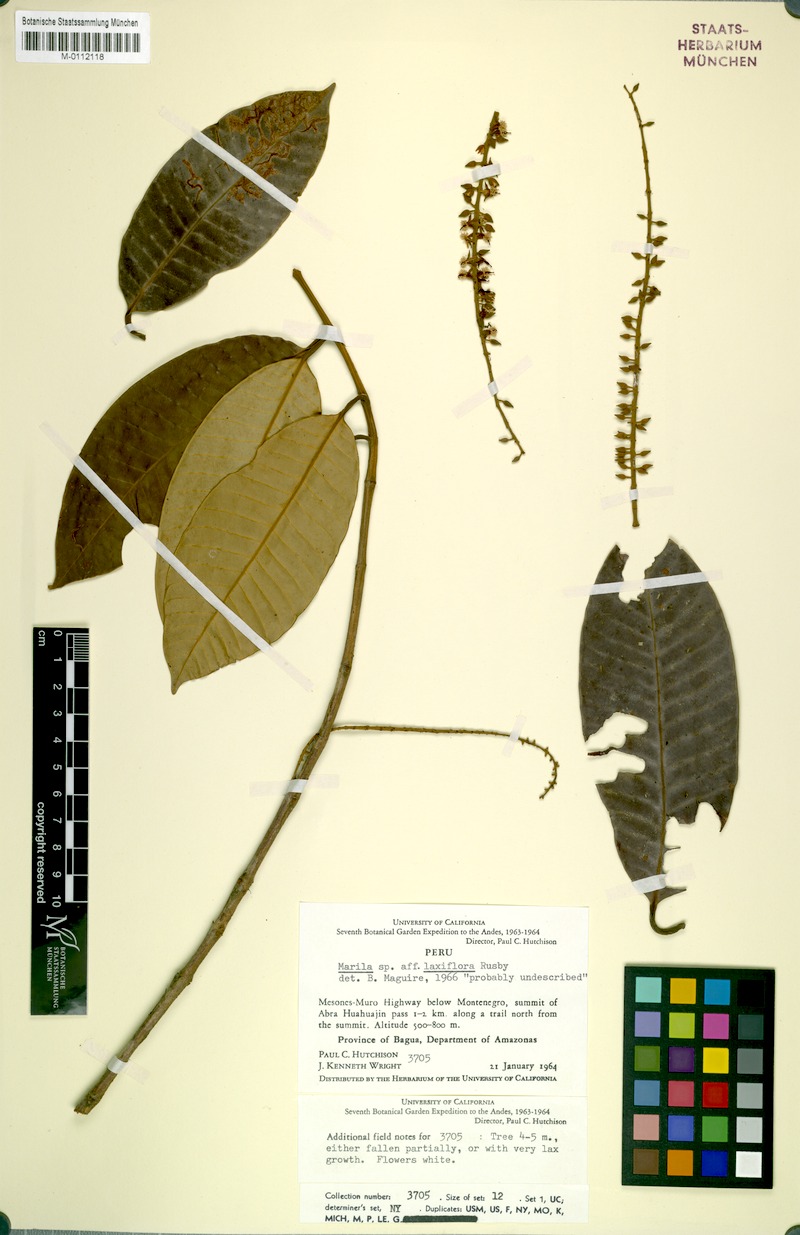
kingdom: Plantae
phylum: Tracheophyta
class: Magnoliopsida
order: Malpighiales
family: Calophyllaceae
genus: Marila
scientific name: Marila spiciformis
